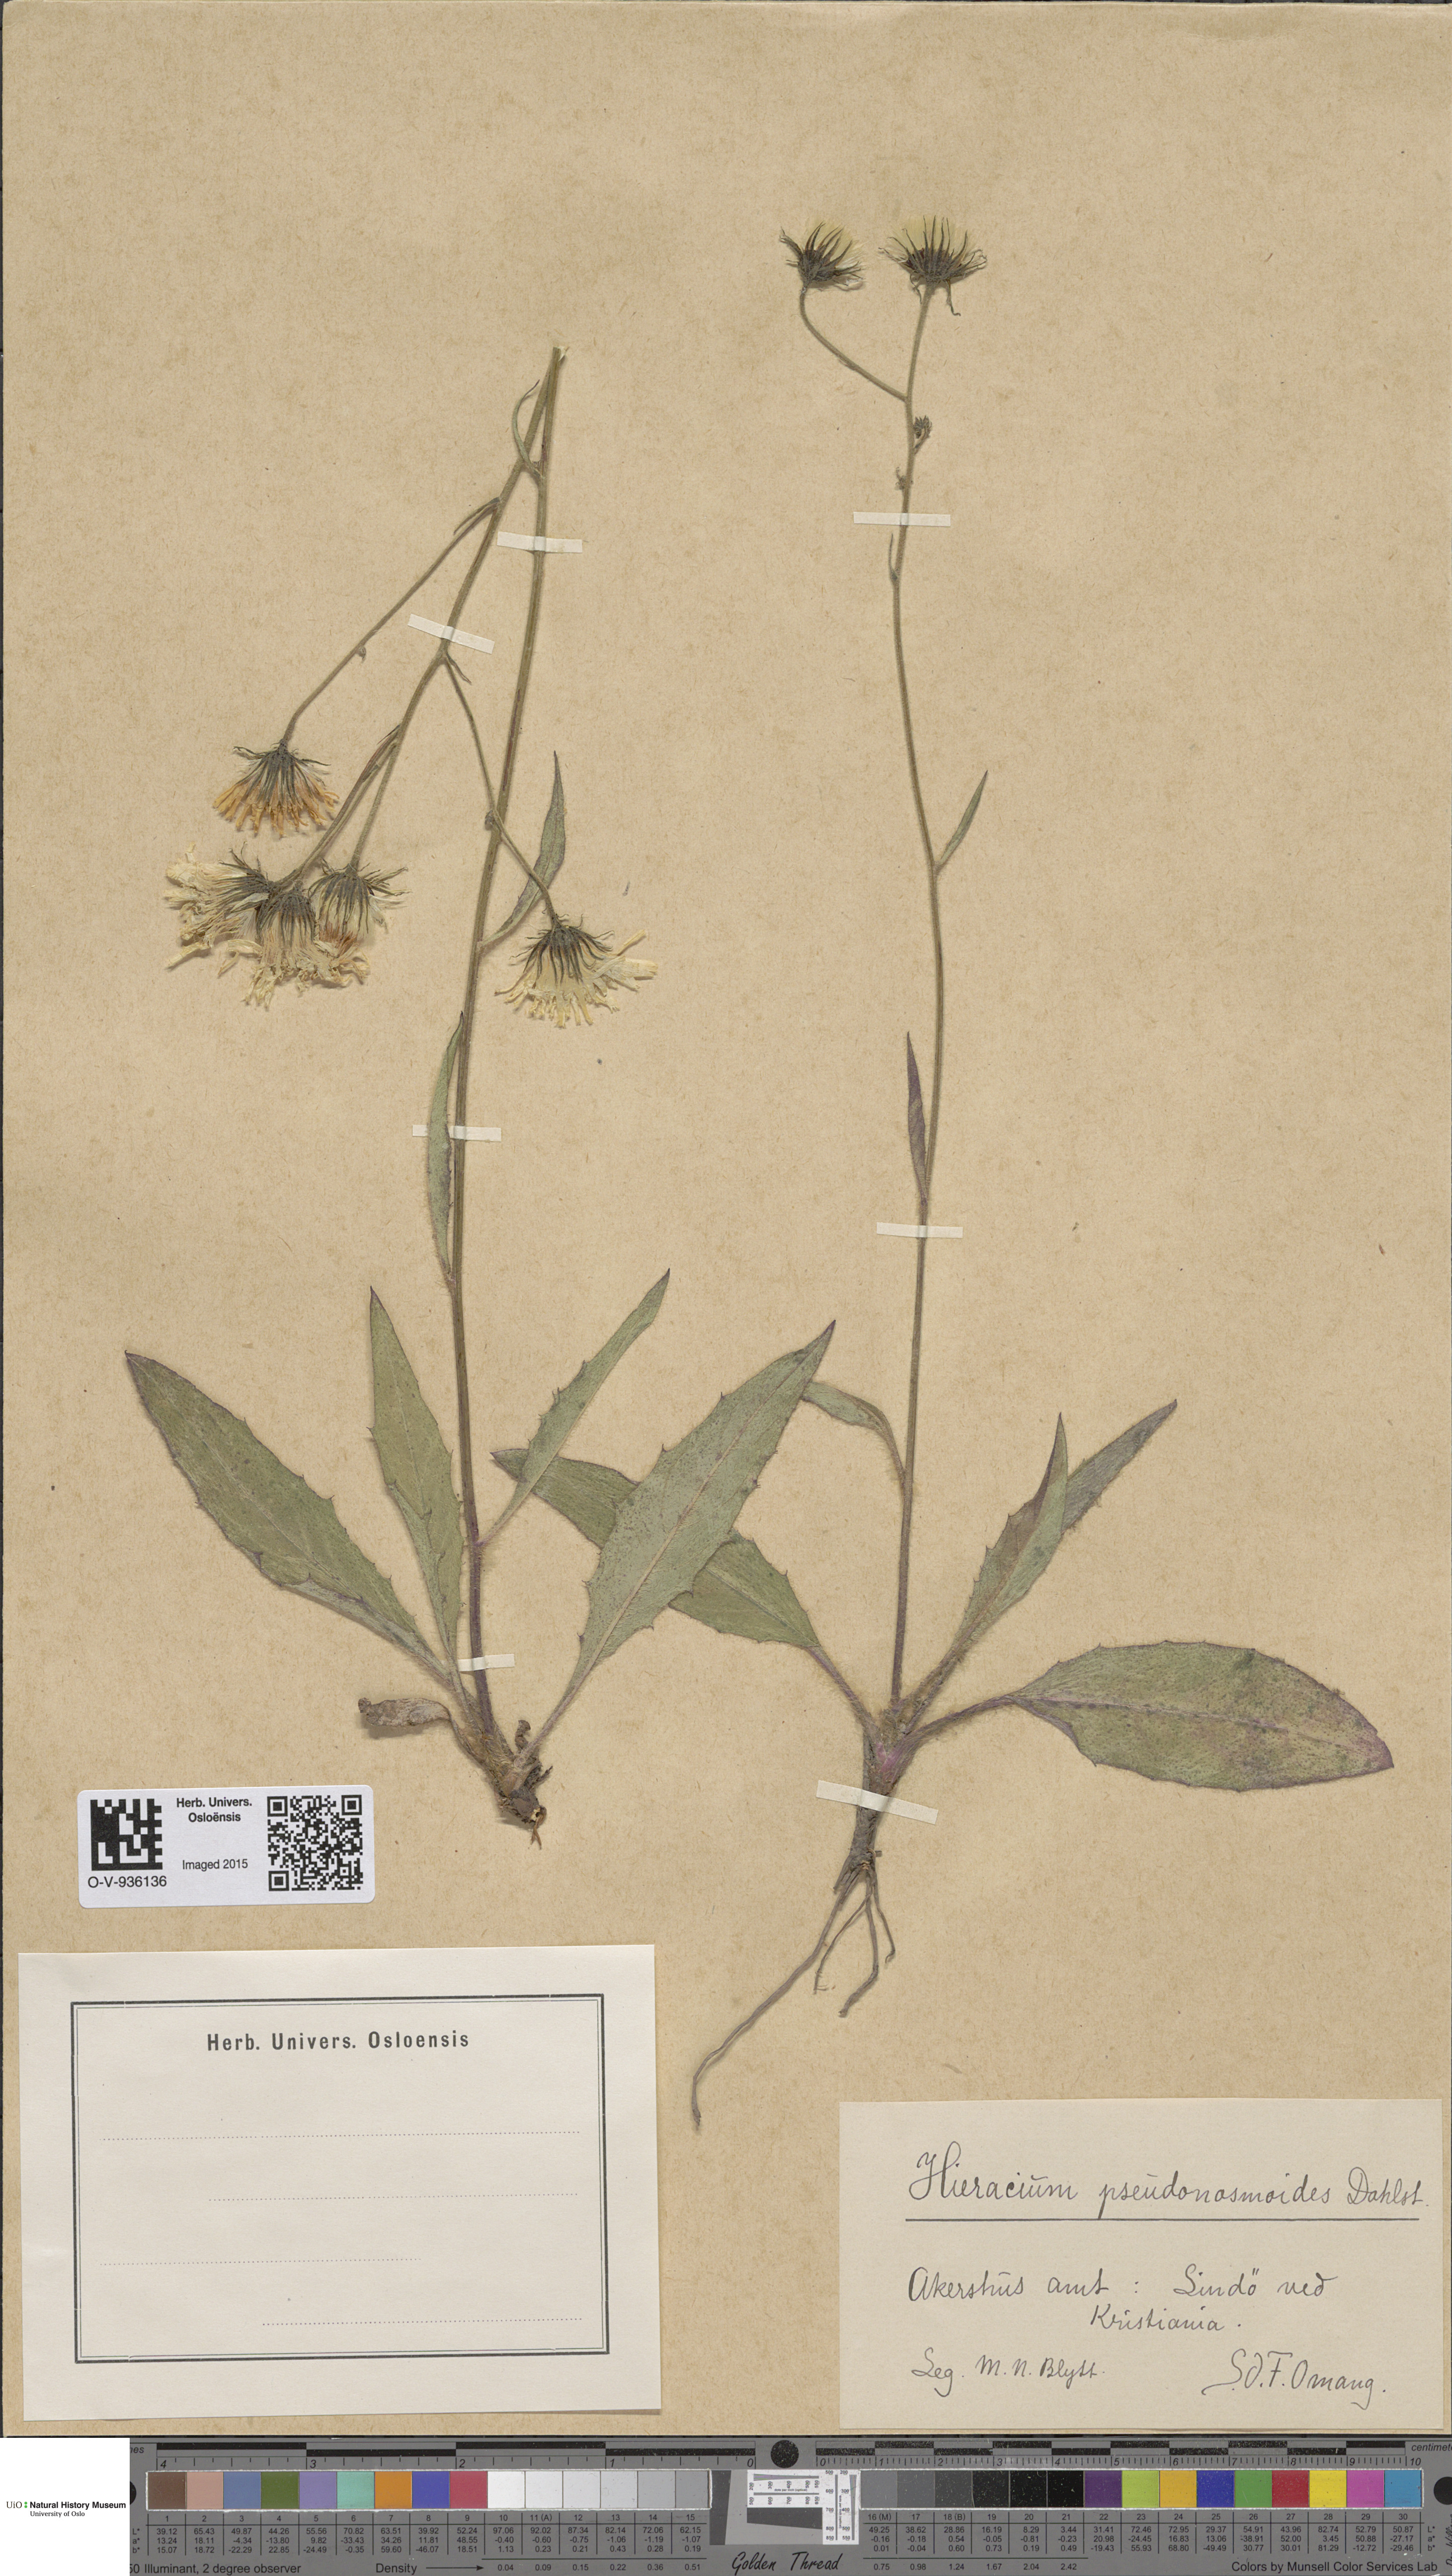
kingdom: Plantae
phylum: Tracheophyta
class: Magnoliopsida
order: Asterales
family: Asteraceae
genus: Hieracium
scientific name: Hieracium saxifragum
